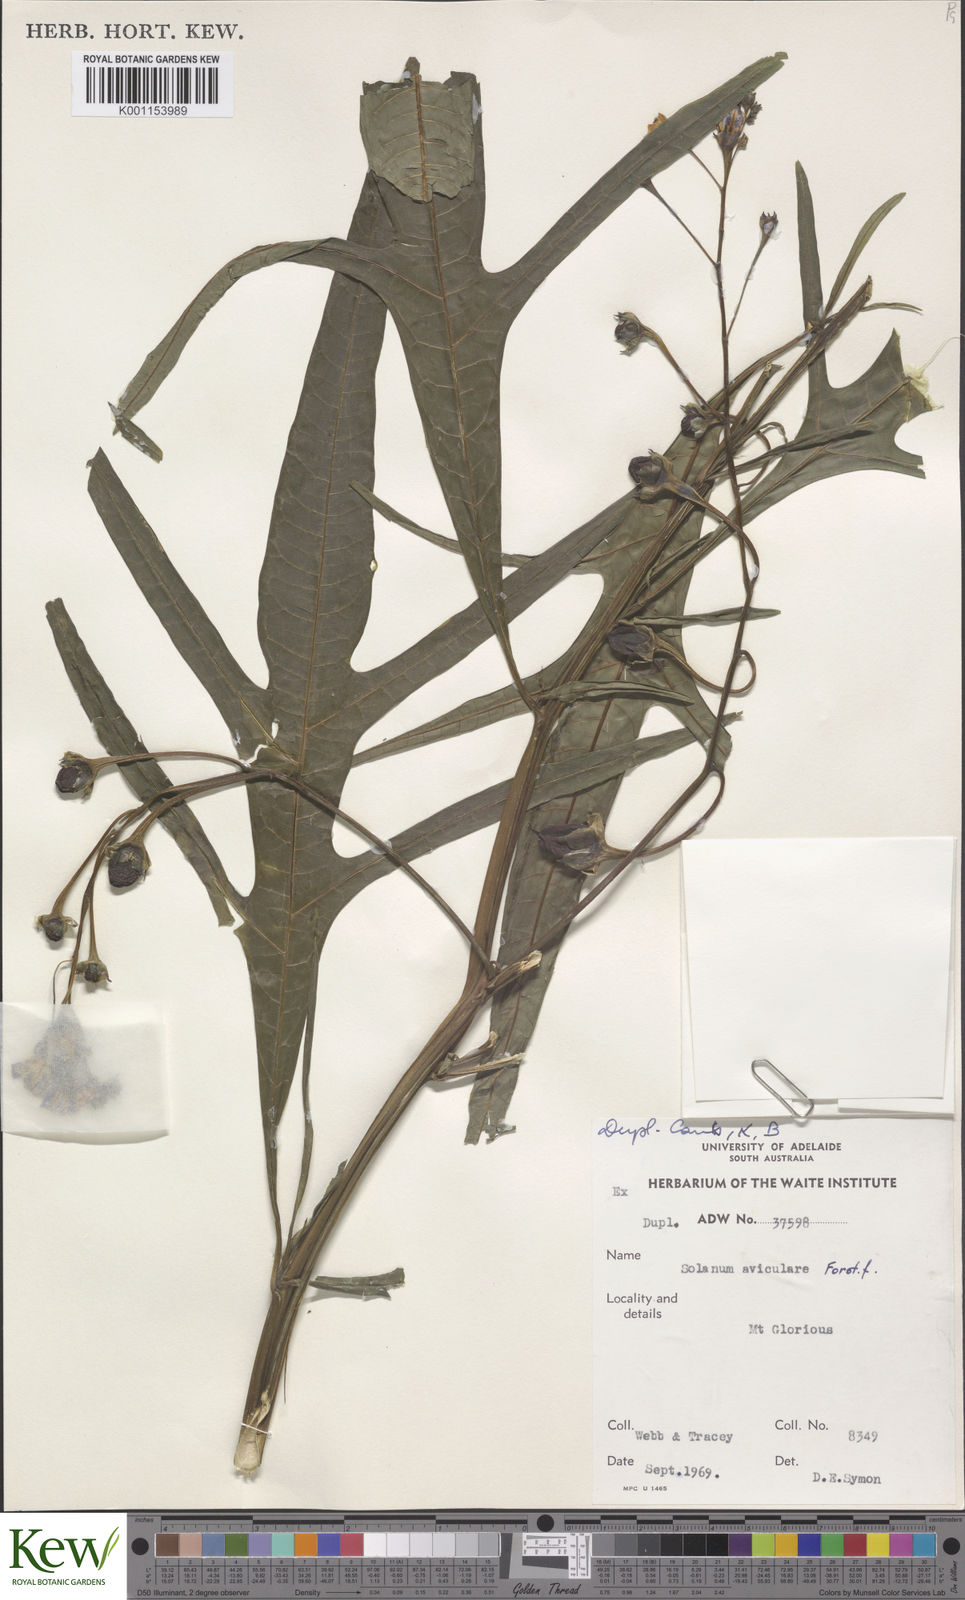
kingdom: Plantae
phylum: Tracheophyta
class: Magnoliopsida
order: Solanales
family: Solanaceae
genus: Solanum
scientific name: Solanum aviculare
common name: New zealand nightshade
